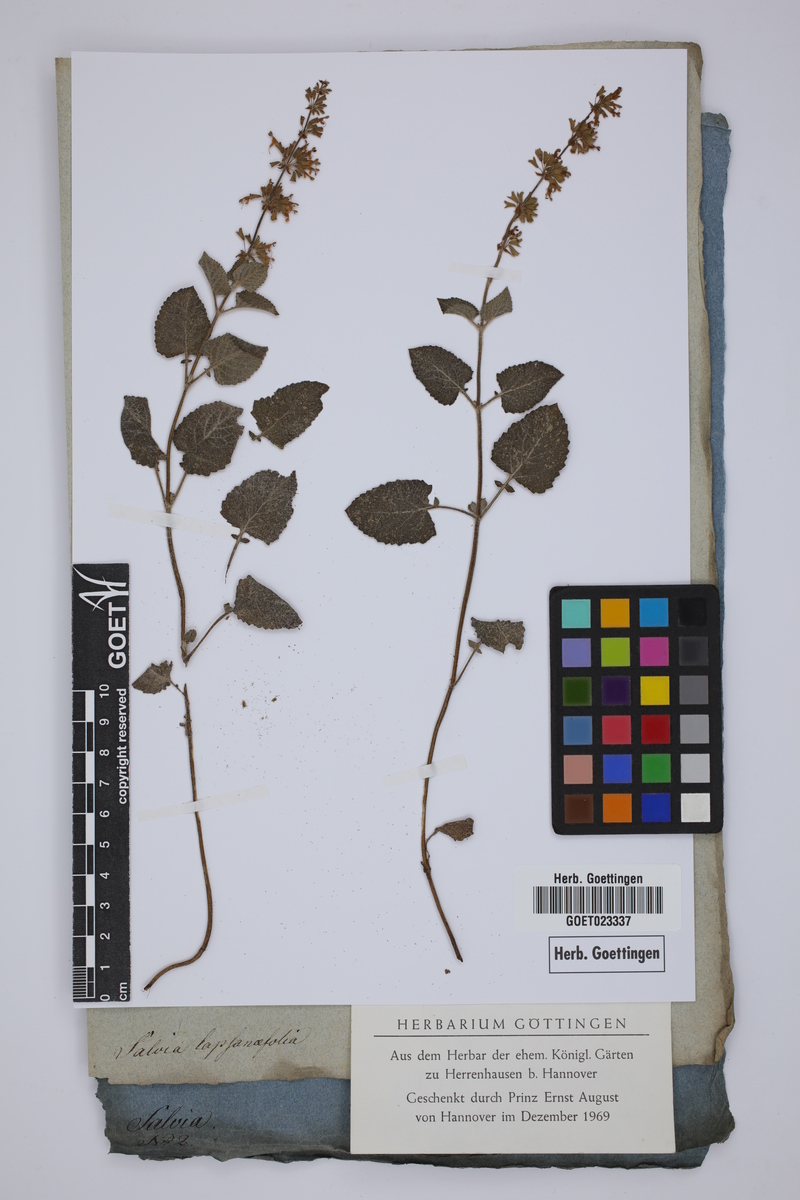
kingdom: Plantae
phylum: Tracheophyta
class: Magnoliopsida
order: Lamiales
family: Lamiaceae
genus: Salvia
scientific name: Salvia verticillata
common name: Whorled clary
